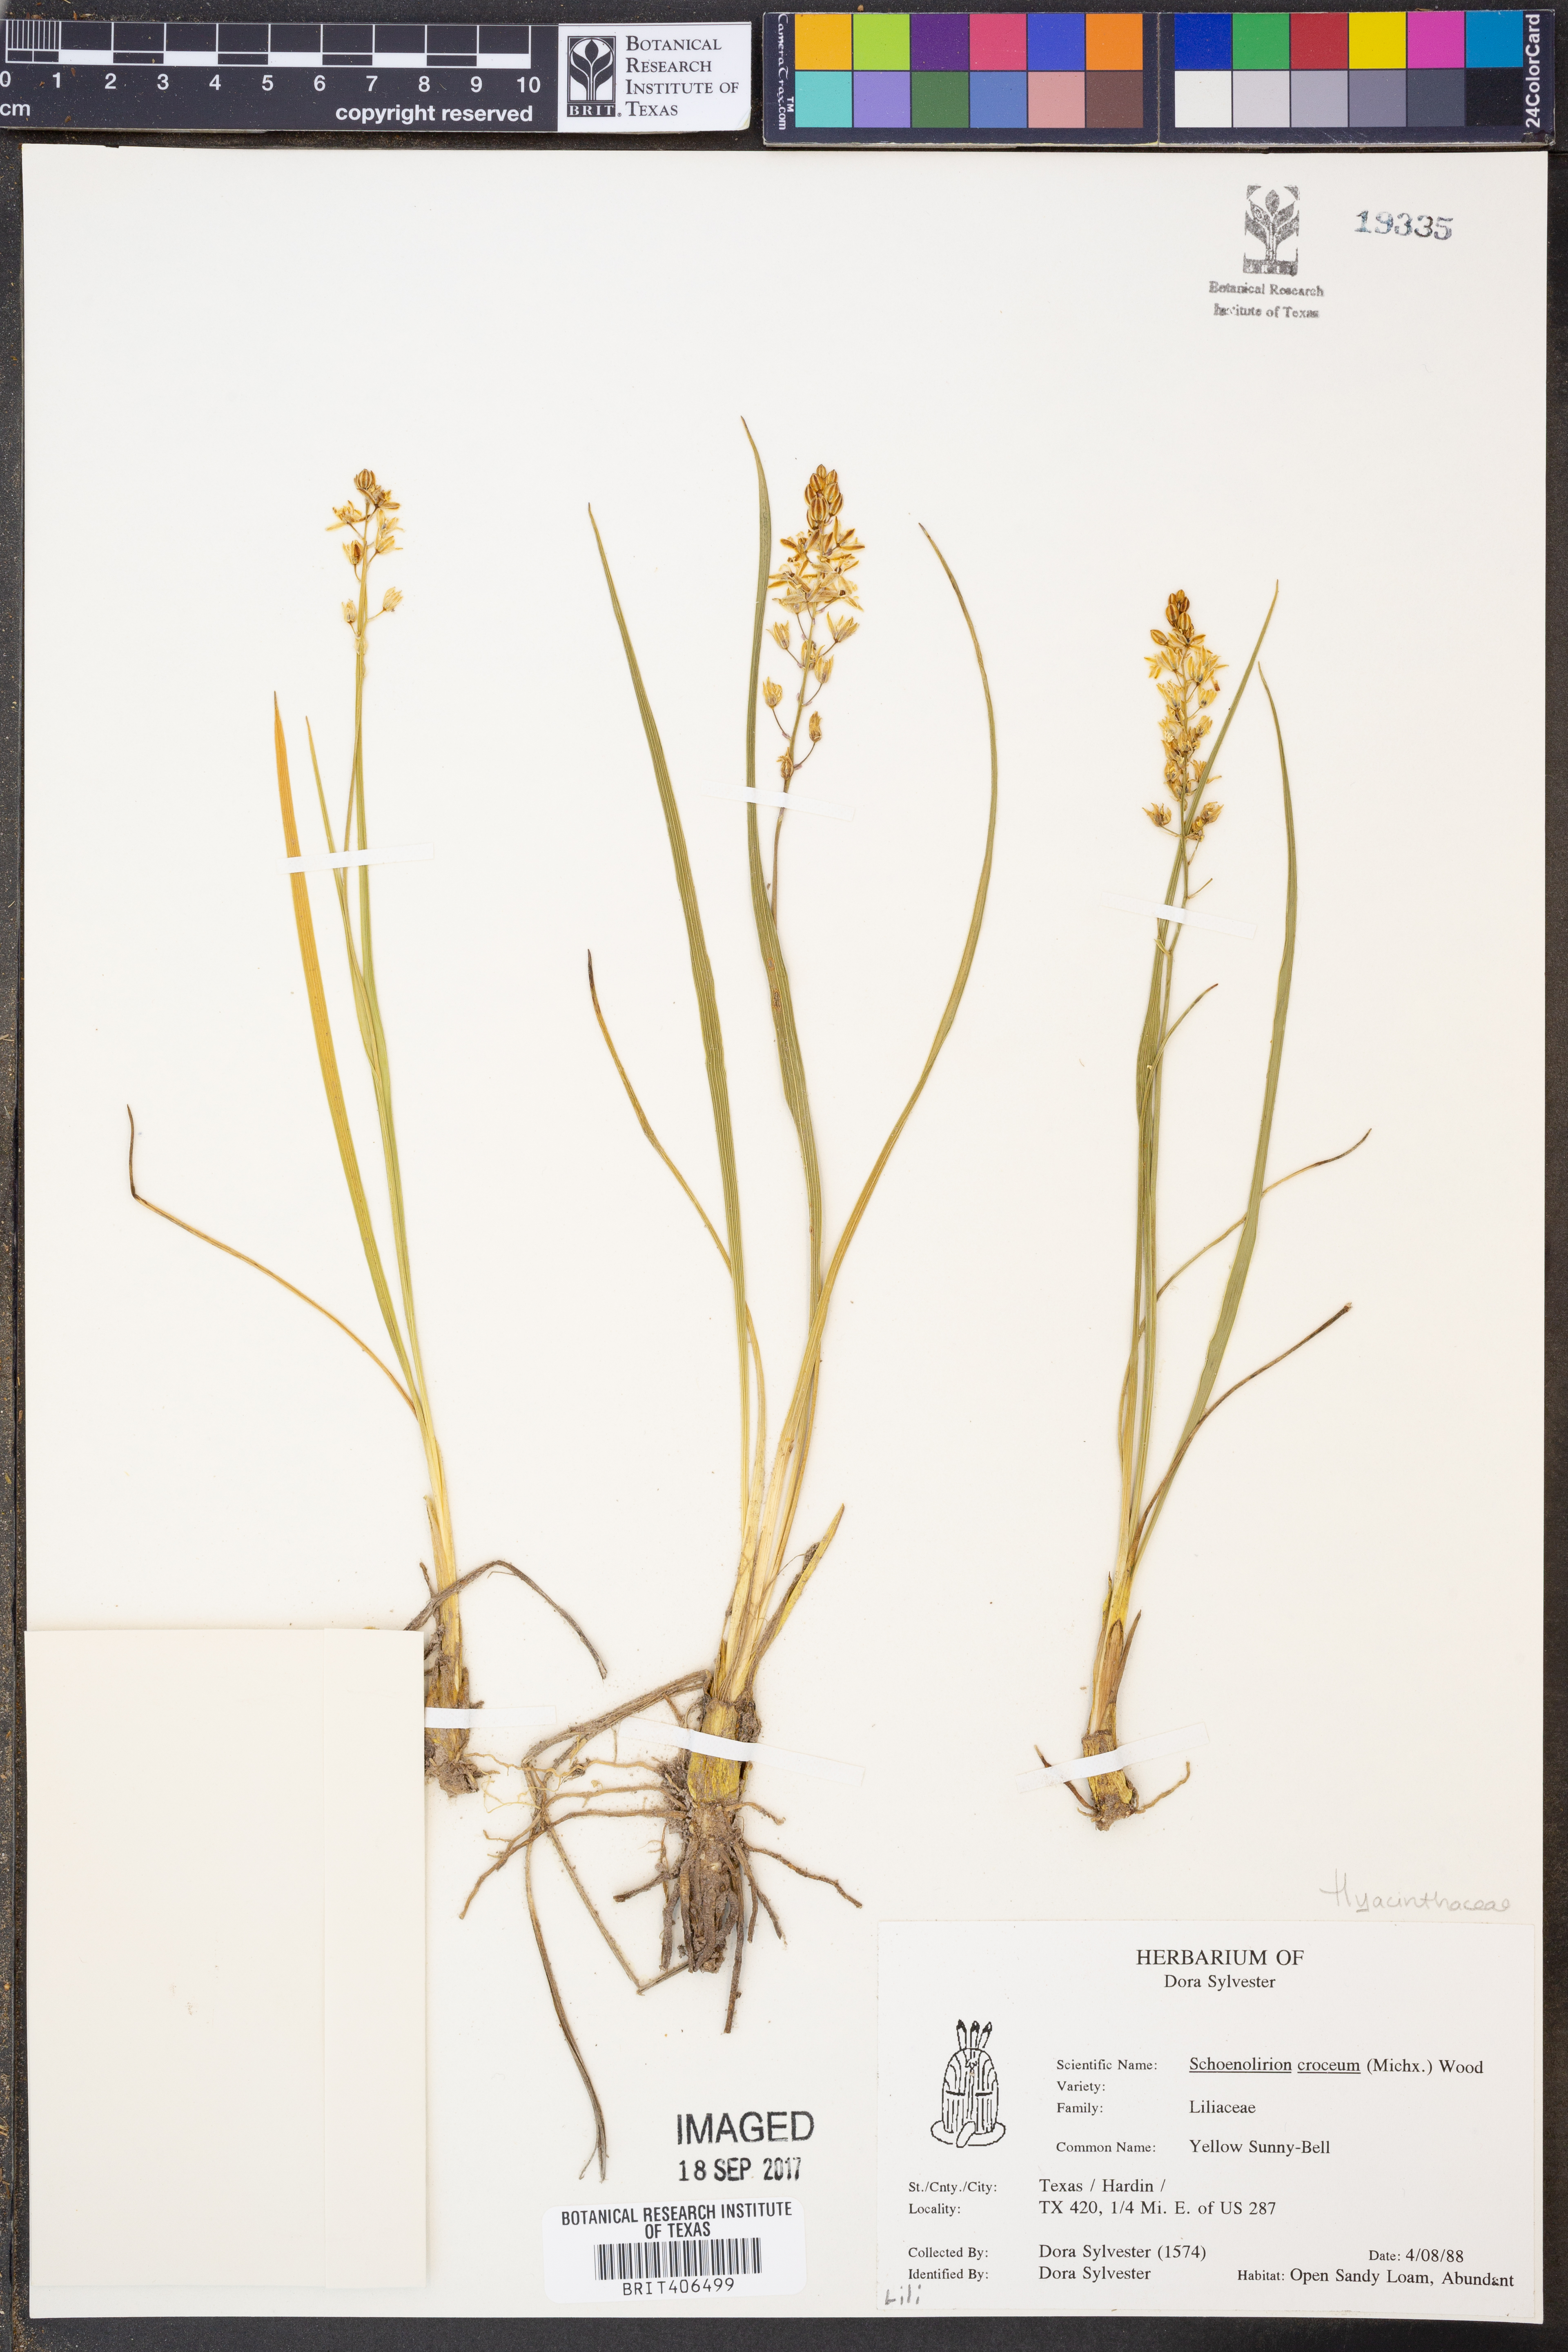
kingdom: Plantae
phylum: Tracheophyta
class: Liliopsida
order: Asparagales
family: Asparagaceae
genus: Schoenolirion
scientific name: Schoenolirion croceum
